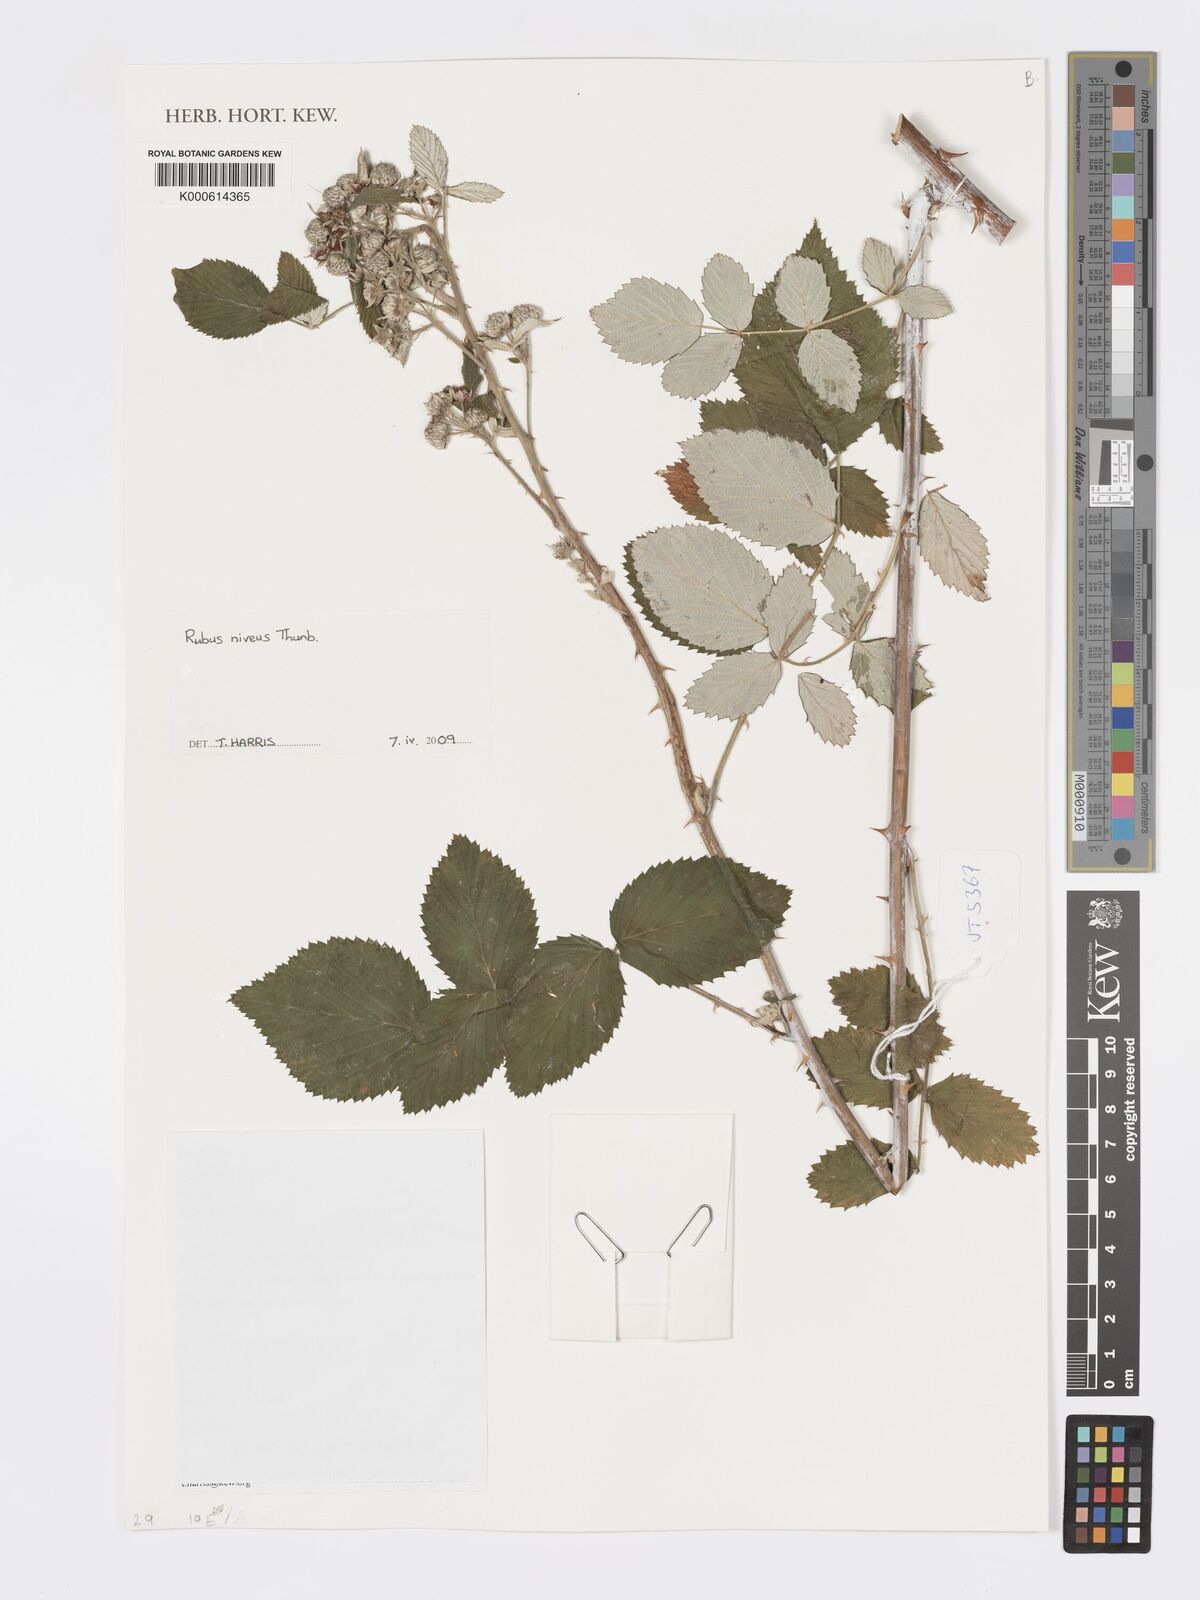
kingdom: Plantae
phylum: Tracheophyta
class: Magnoliopsida
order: Rosales
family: Rosaceae
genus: Rubus
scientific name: Rubus niveus
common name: Snowpeaks raspberry
